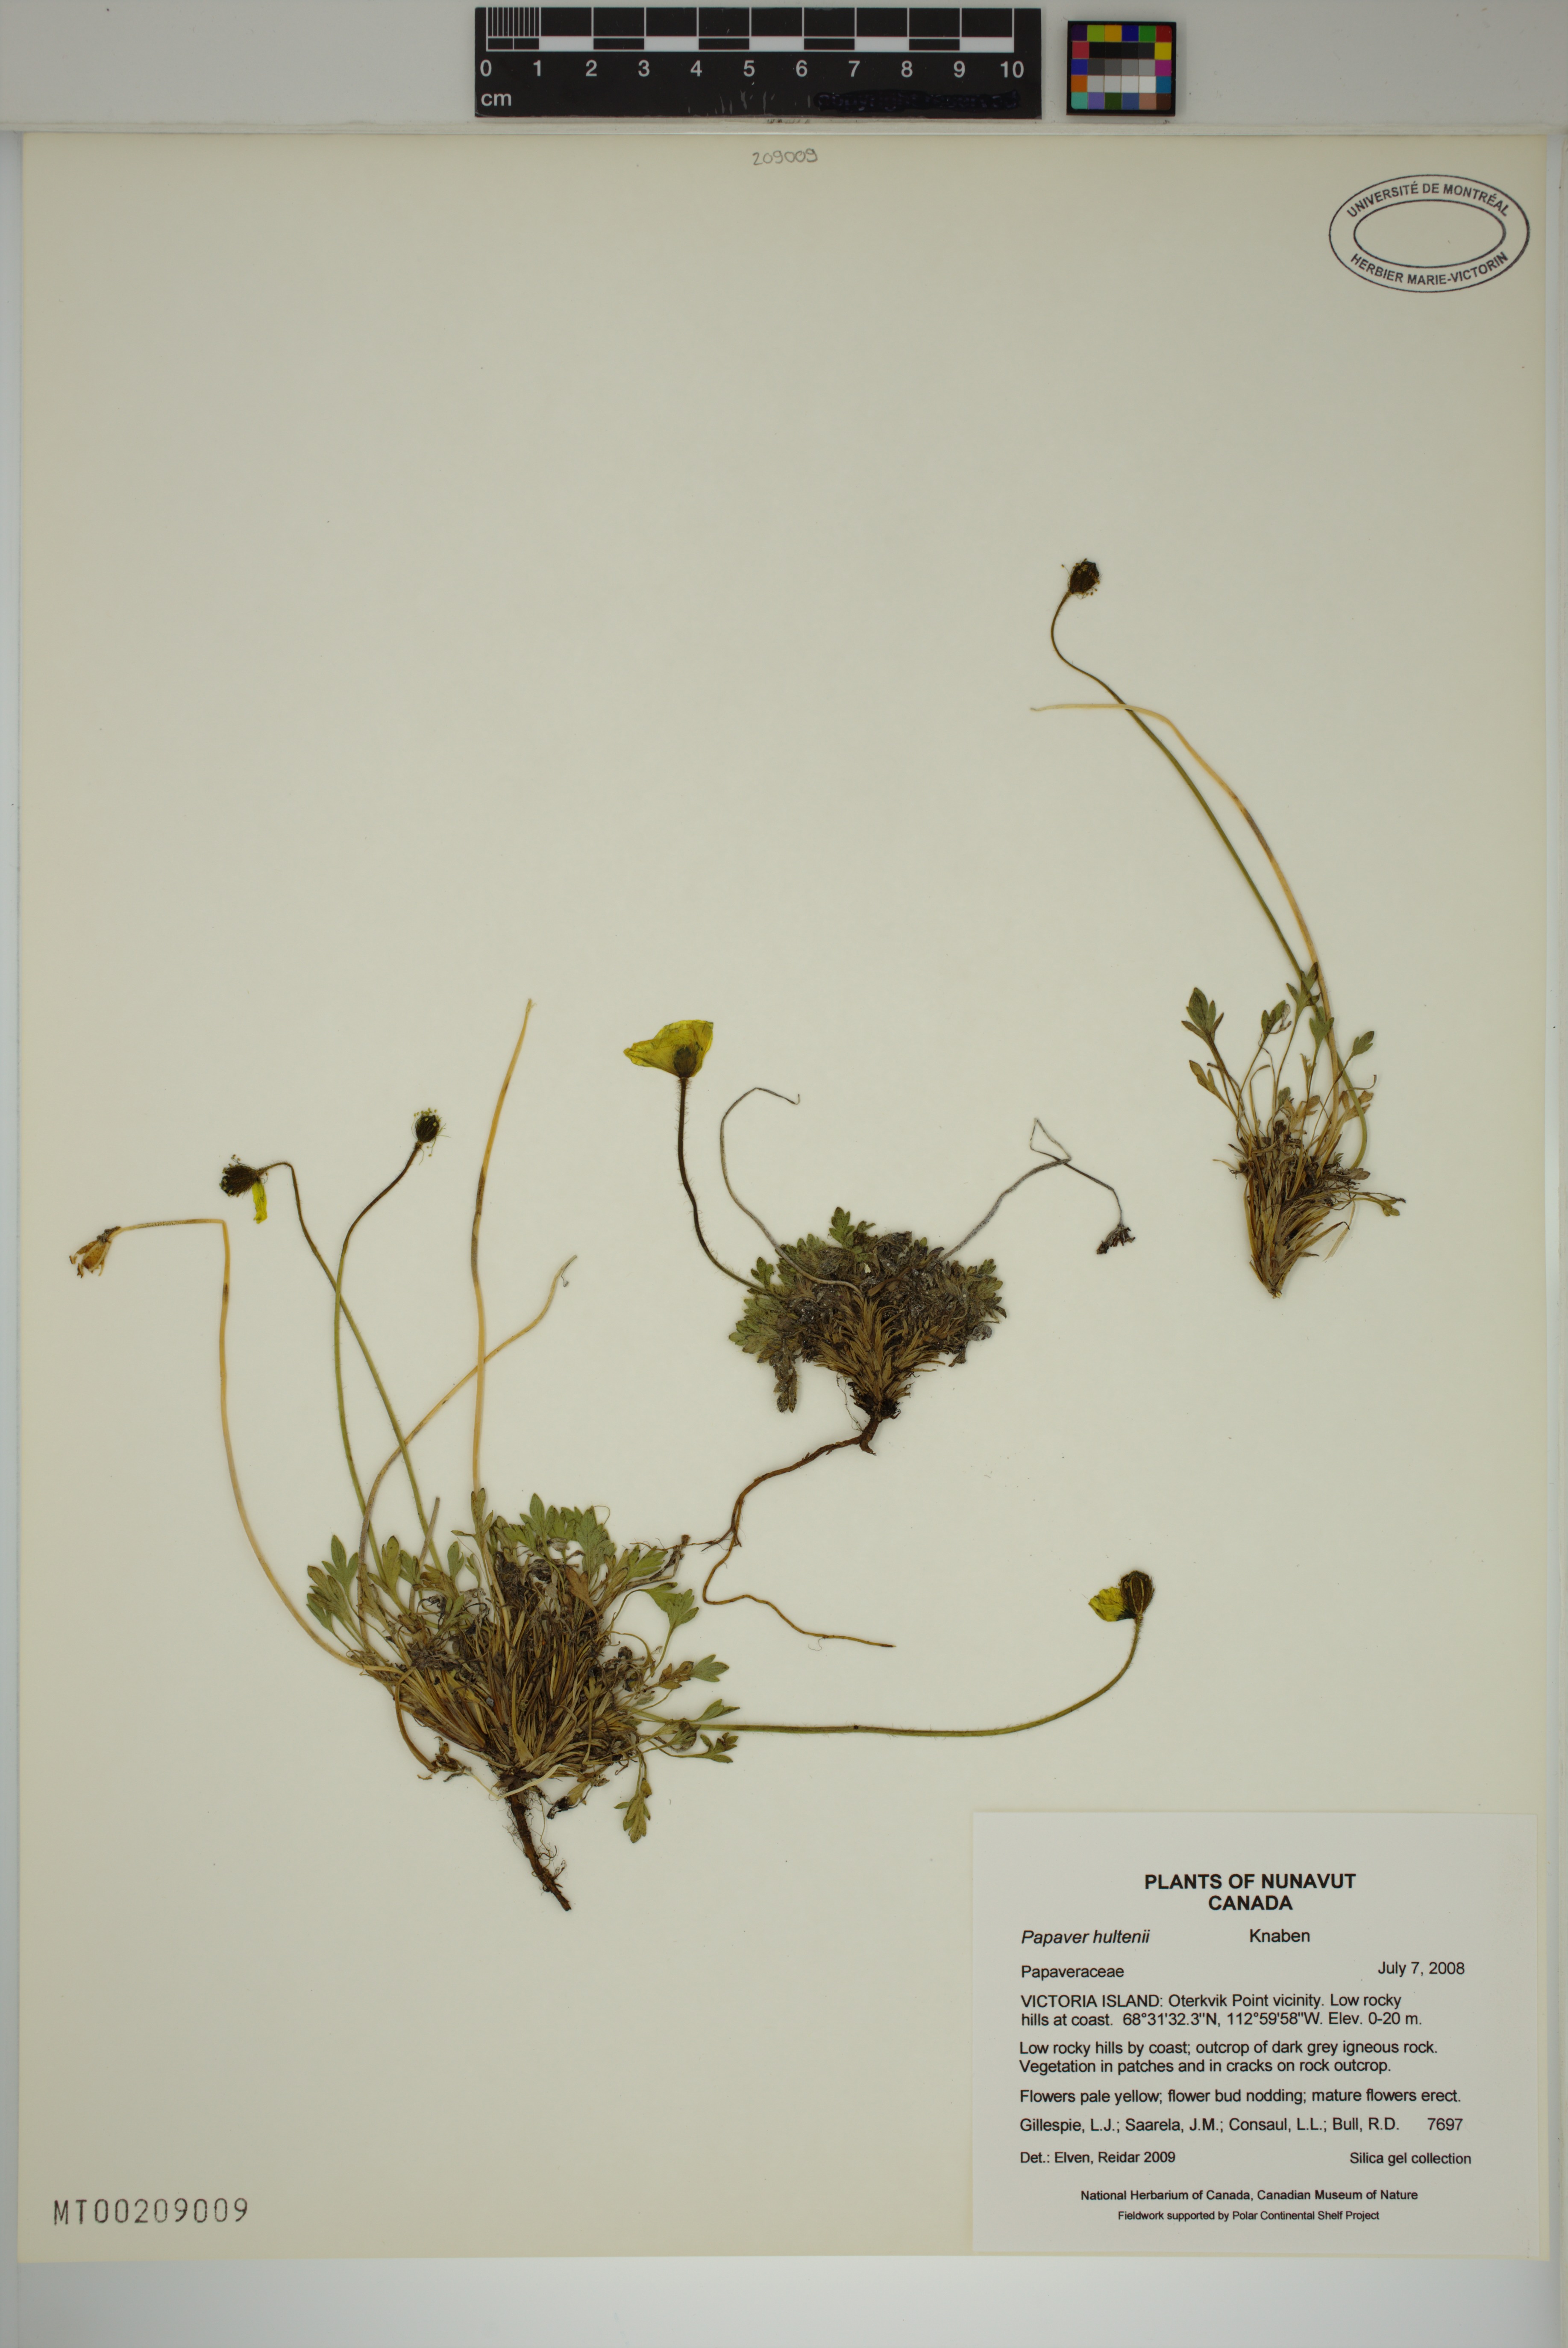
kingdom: Plantae
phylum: Tracheophyta
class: Magnoliopsida
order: Ranunculales
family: Papaveraceae
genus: Papaver
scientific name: Papaver lapponicum
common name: Lapland poppy
